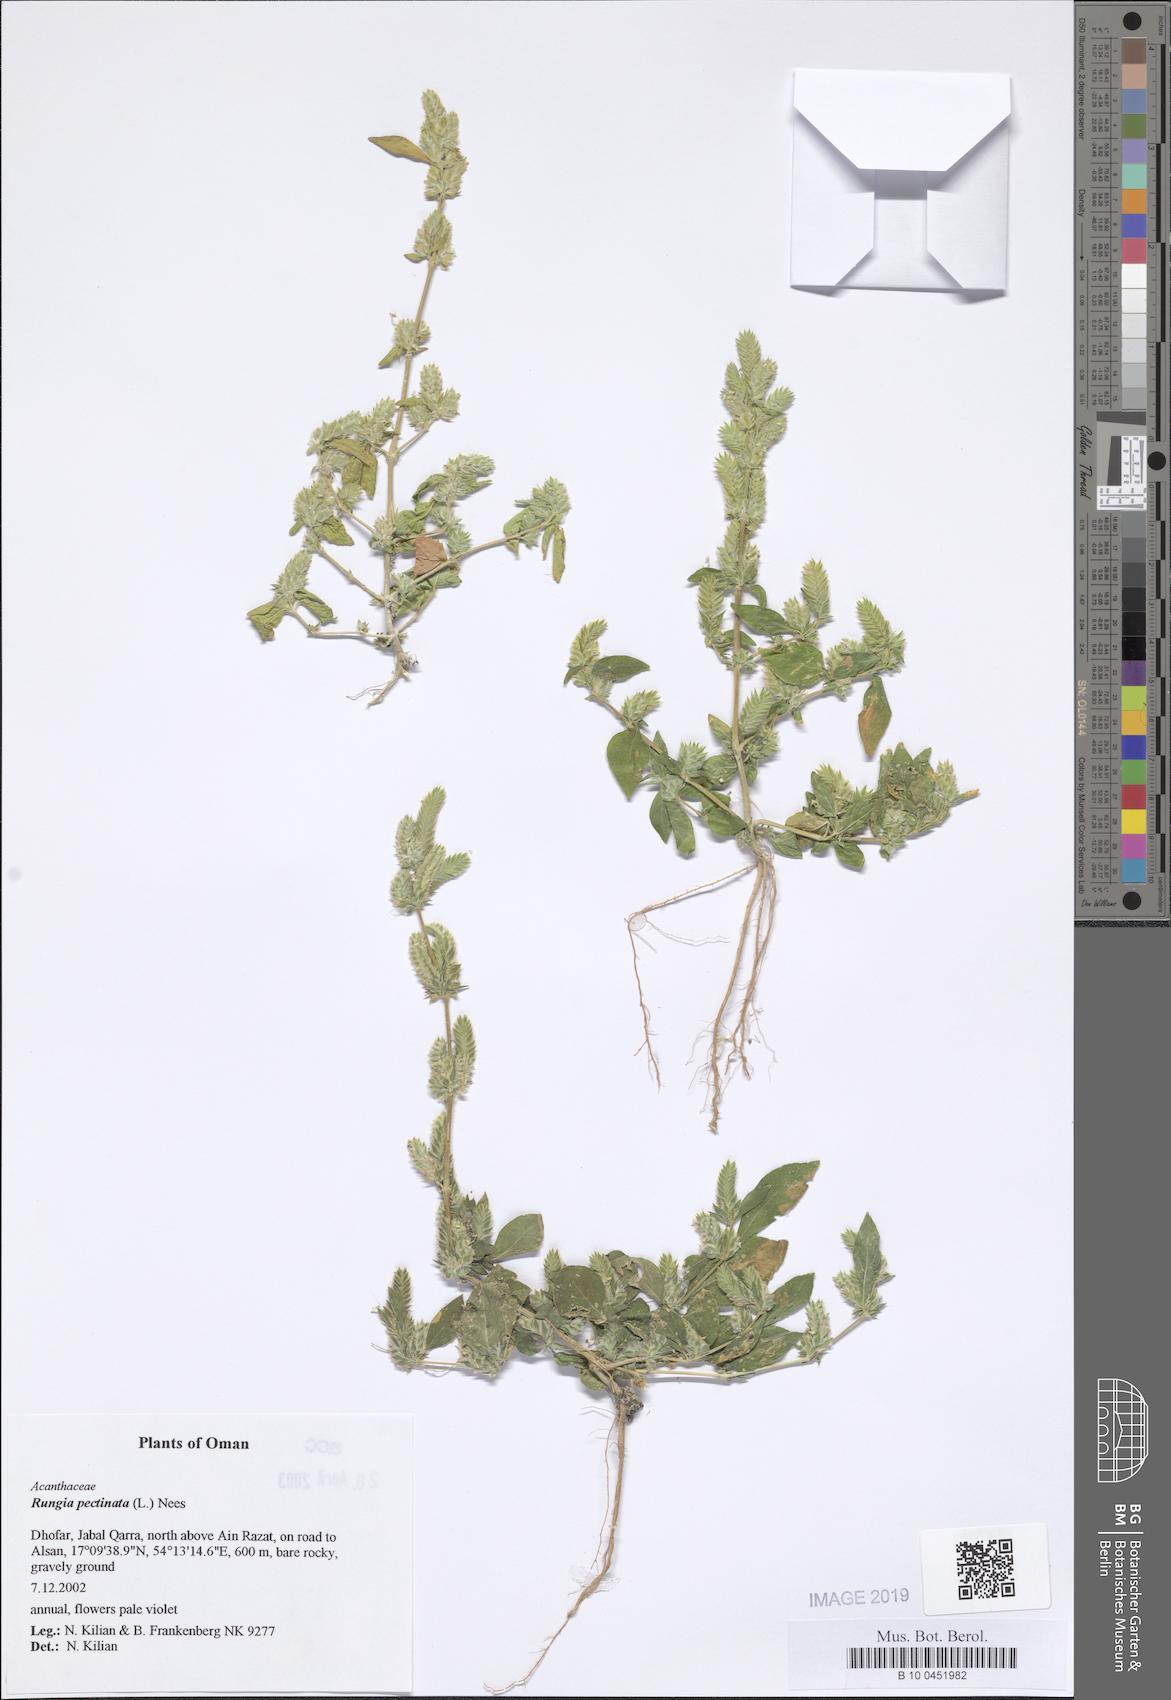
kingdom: Plantae
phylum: Tracheophyta
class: Magnoliopsida
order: Lamiales
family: Acanthaceae
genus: Rungia
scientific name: Rungia pectinata
